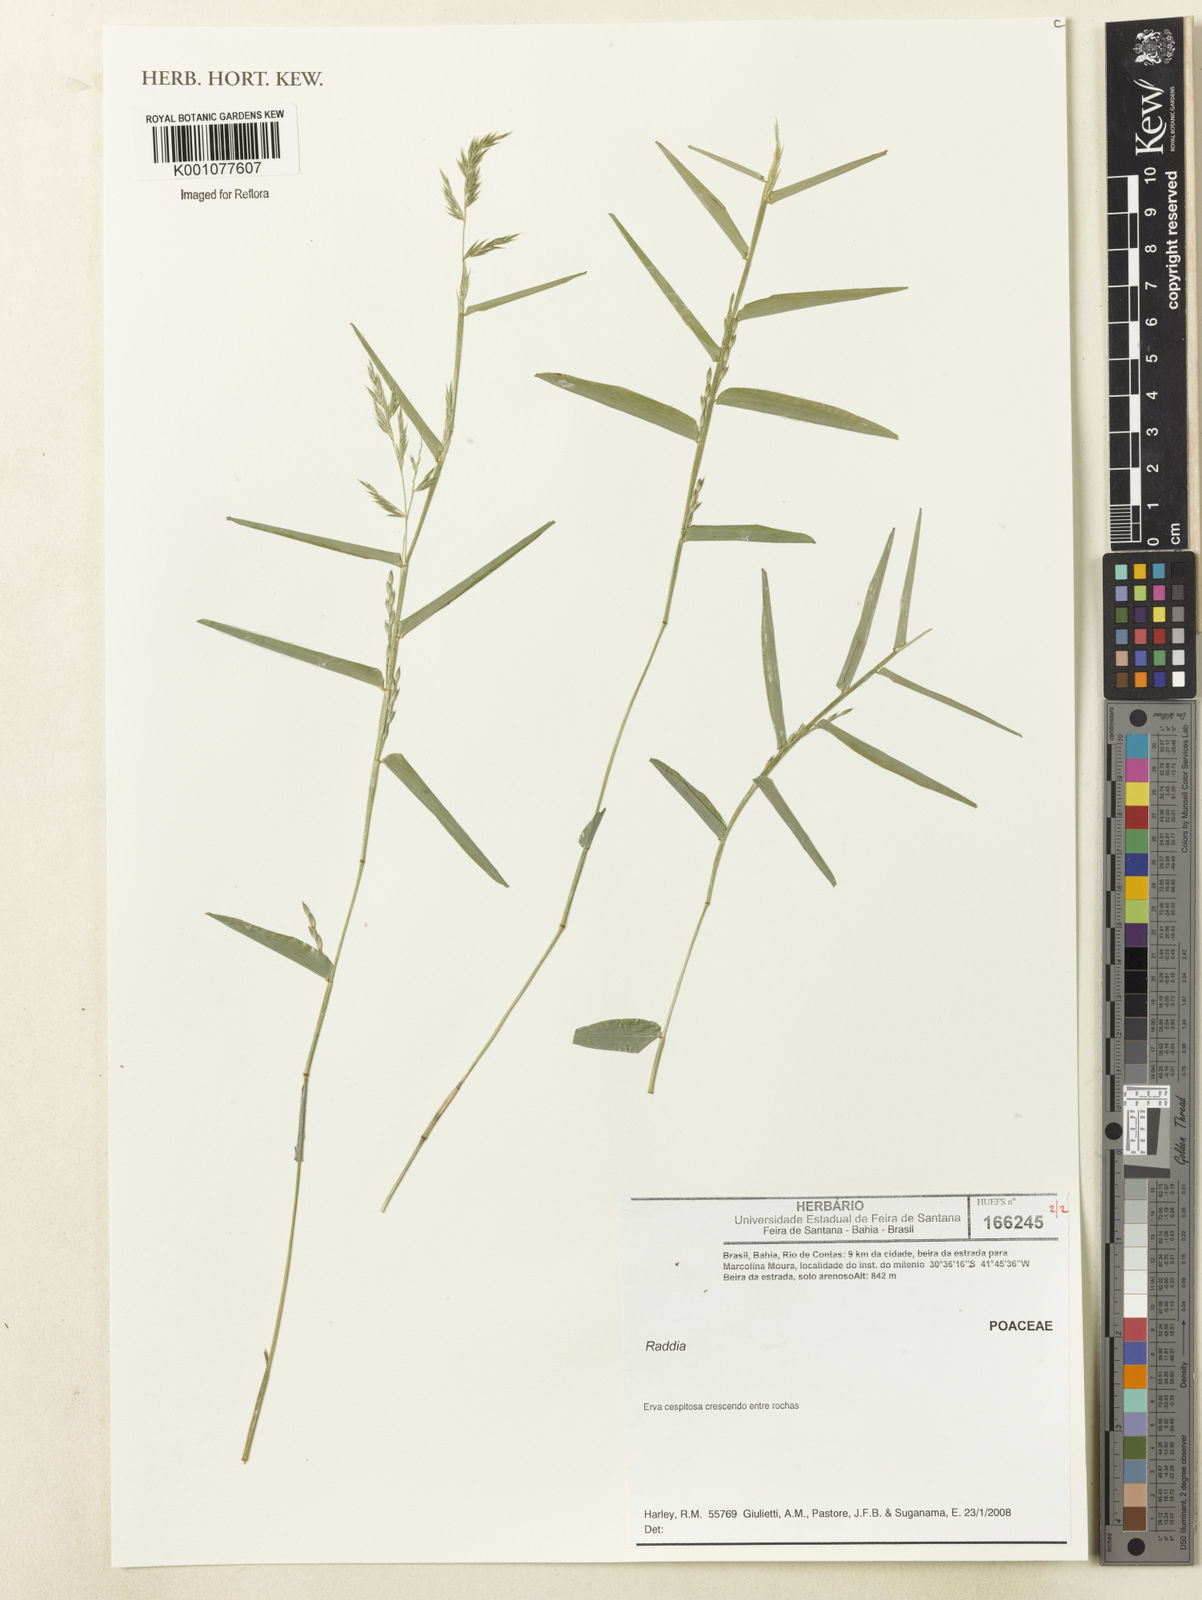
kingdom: Plantae
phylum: Tracheophyta
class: Liliopsida
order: Poales
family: Poaceae
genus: Raddia
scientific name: Raddia
